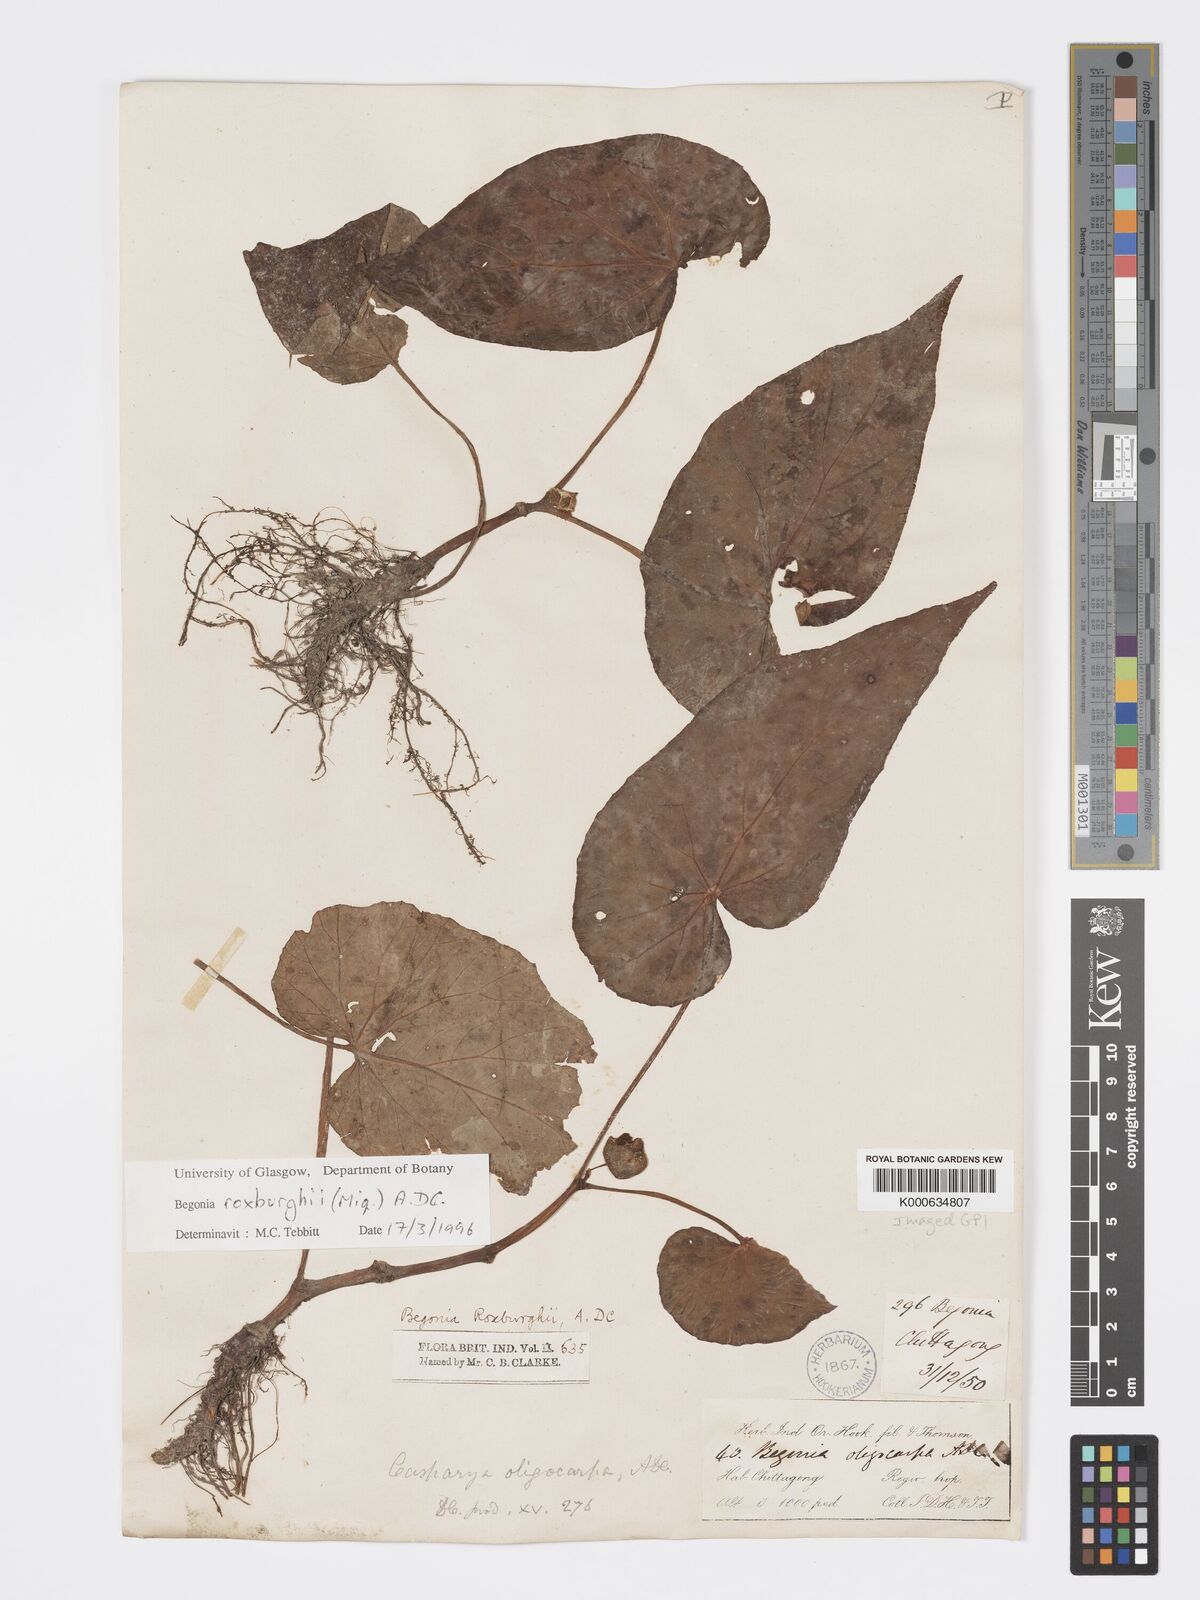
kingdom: Plantae
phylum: Tracheophyta
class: Magnoliopsida
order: Cucurbitales
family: Begoniaceae
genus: Begonia
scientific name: Begonia roxburghii
